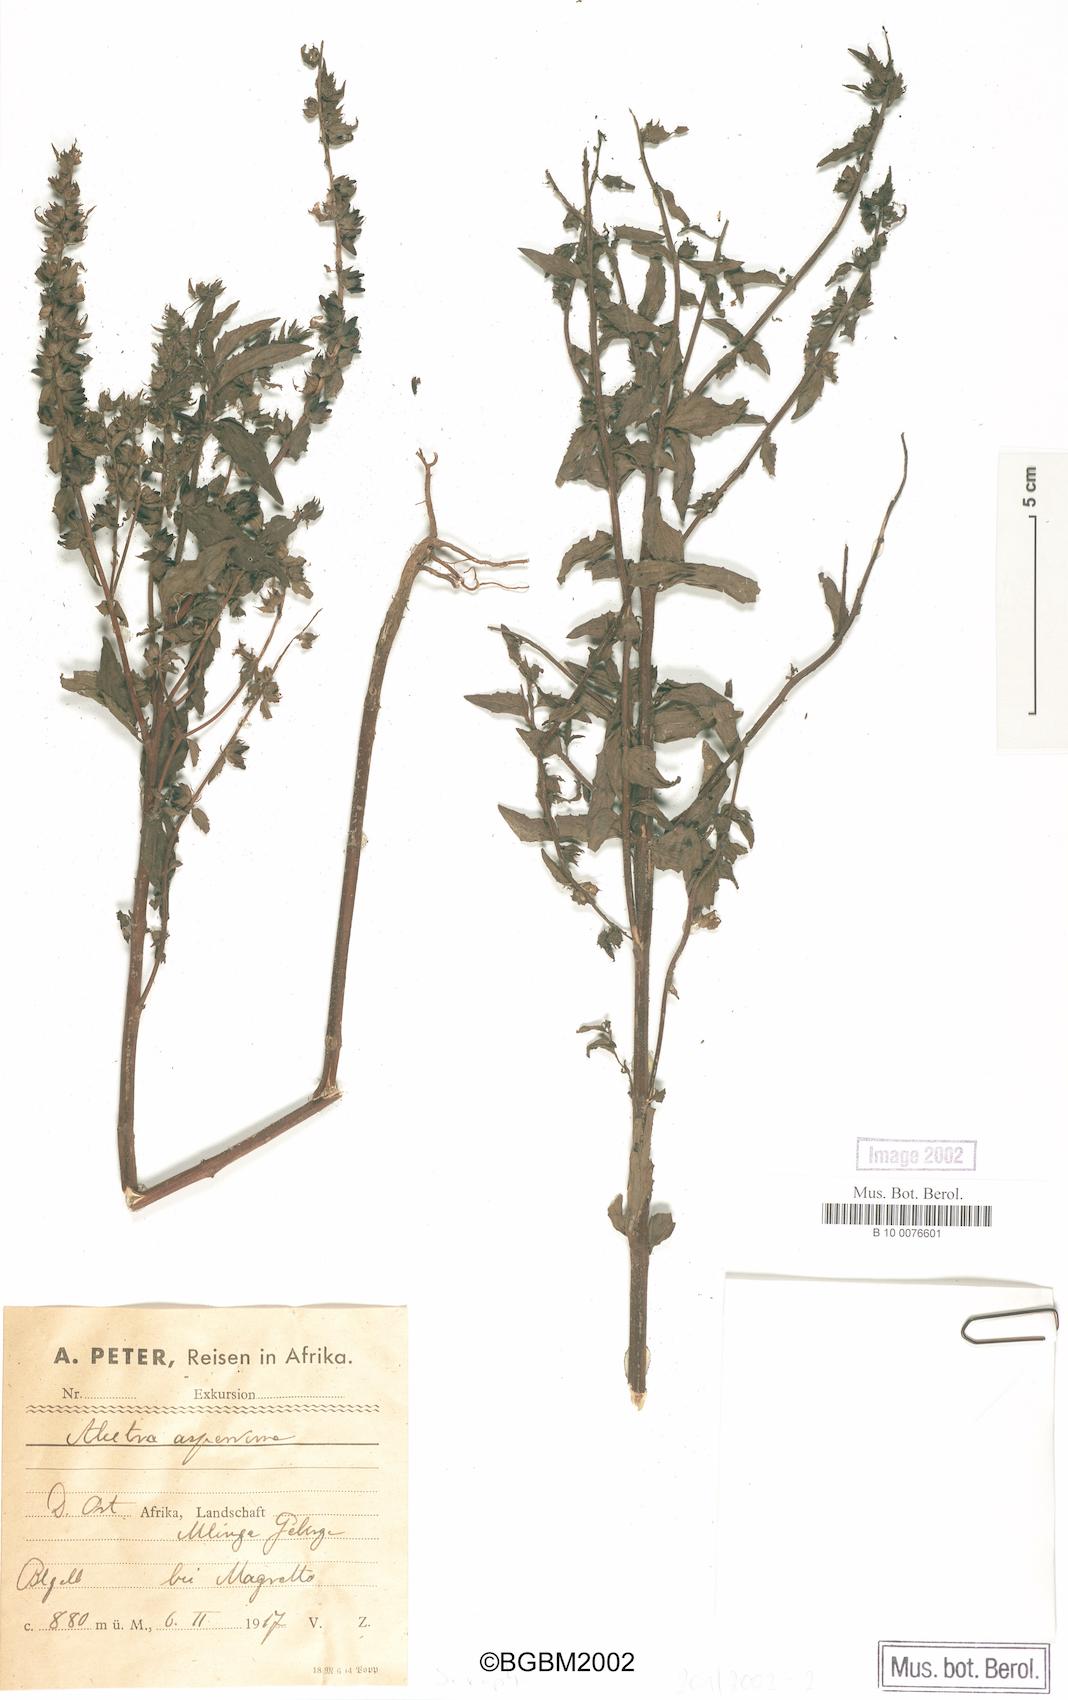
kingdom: Plantae
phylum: Tracheophyta
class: Magnoliopsida
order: Lamiales
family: Orobanchaceae
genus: Alectra
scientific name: Alectra asperrima
